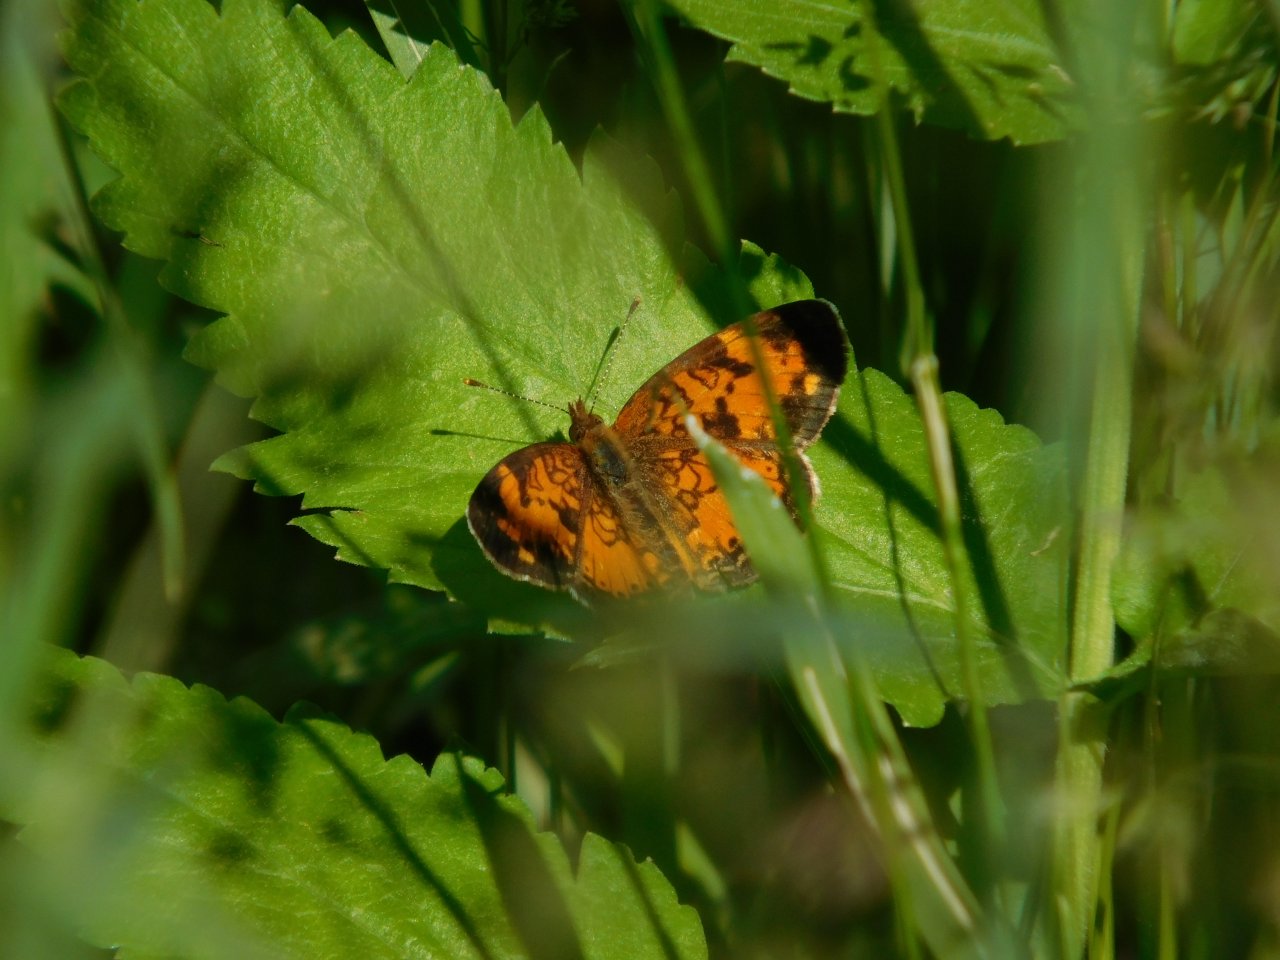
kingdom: Animalia
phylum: Arthropoda
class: Insecta
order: Lepidoptera
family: Nymphalidae
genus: Phyciodes
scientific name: Phyciodes tharos
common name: Pearl Crescent
